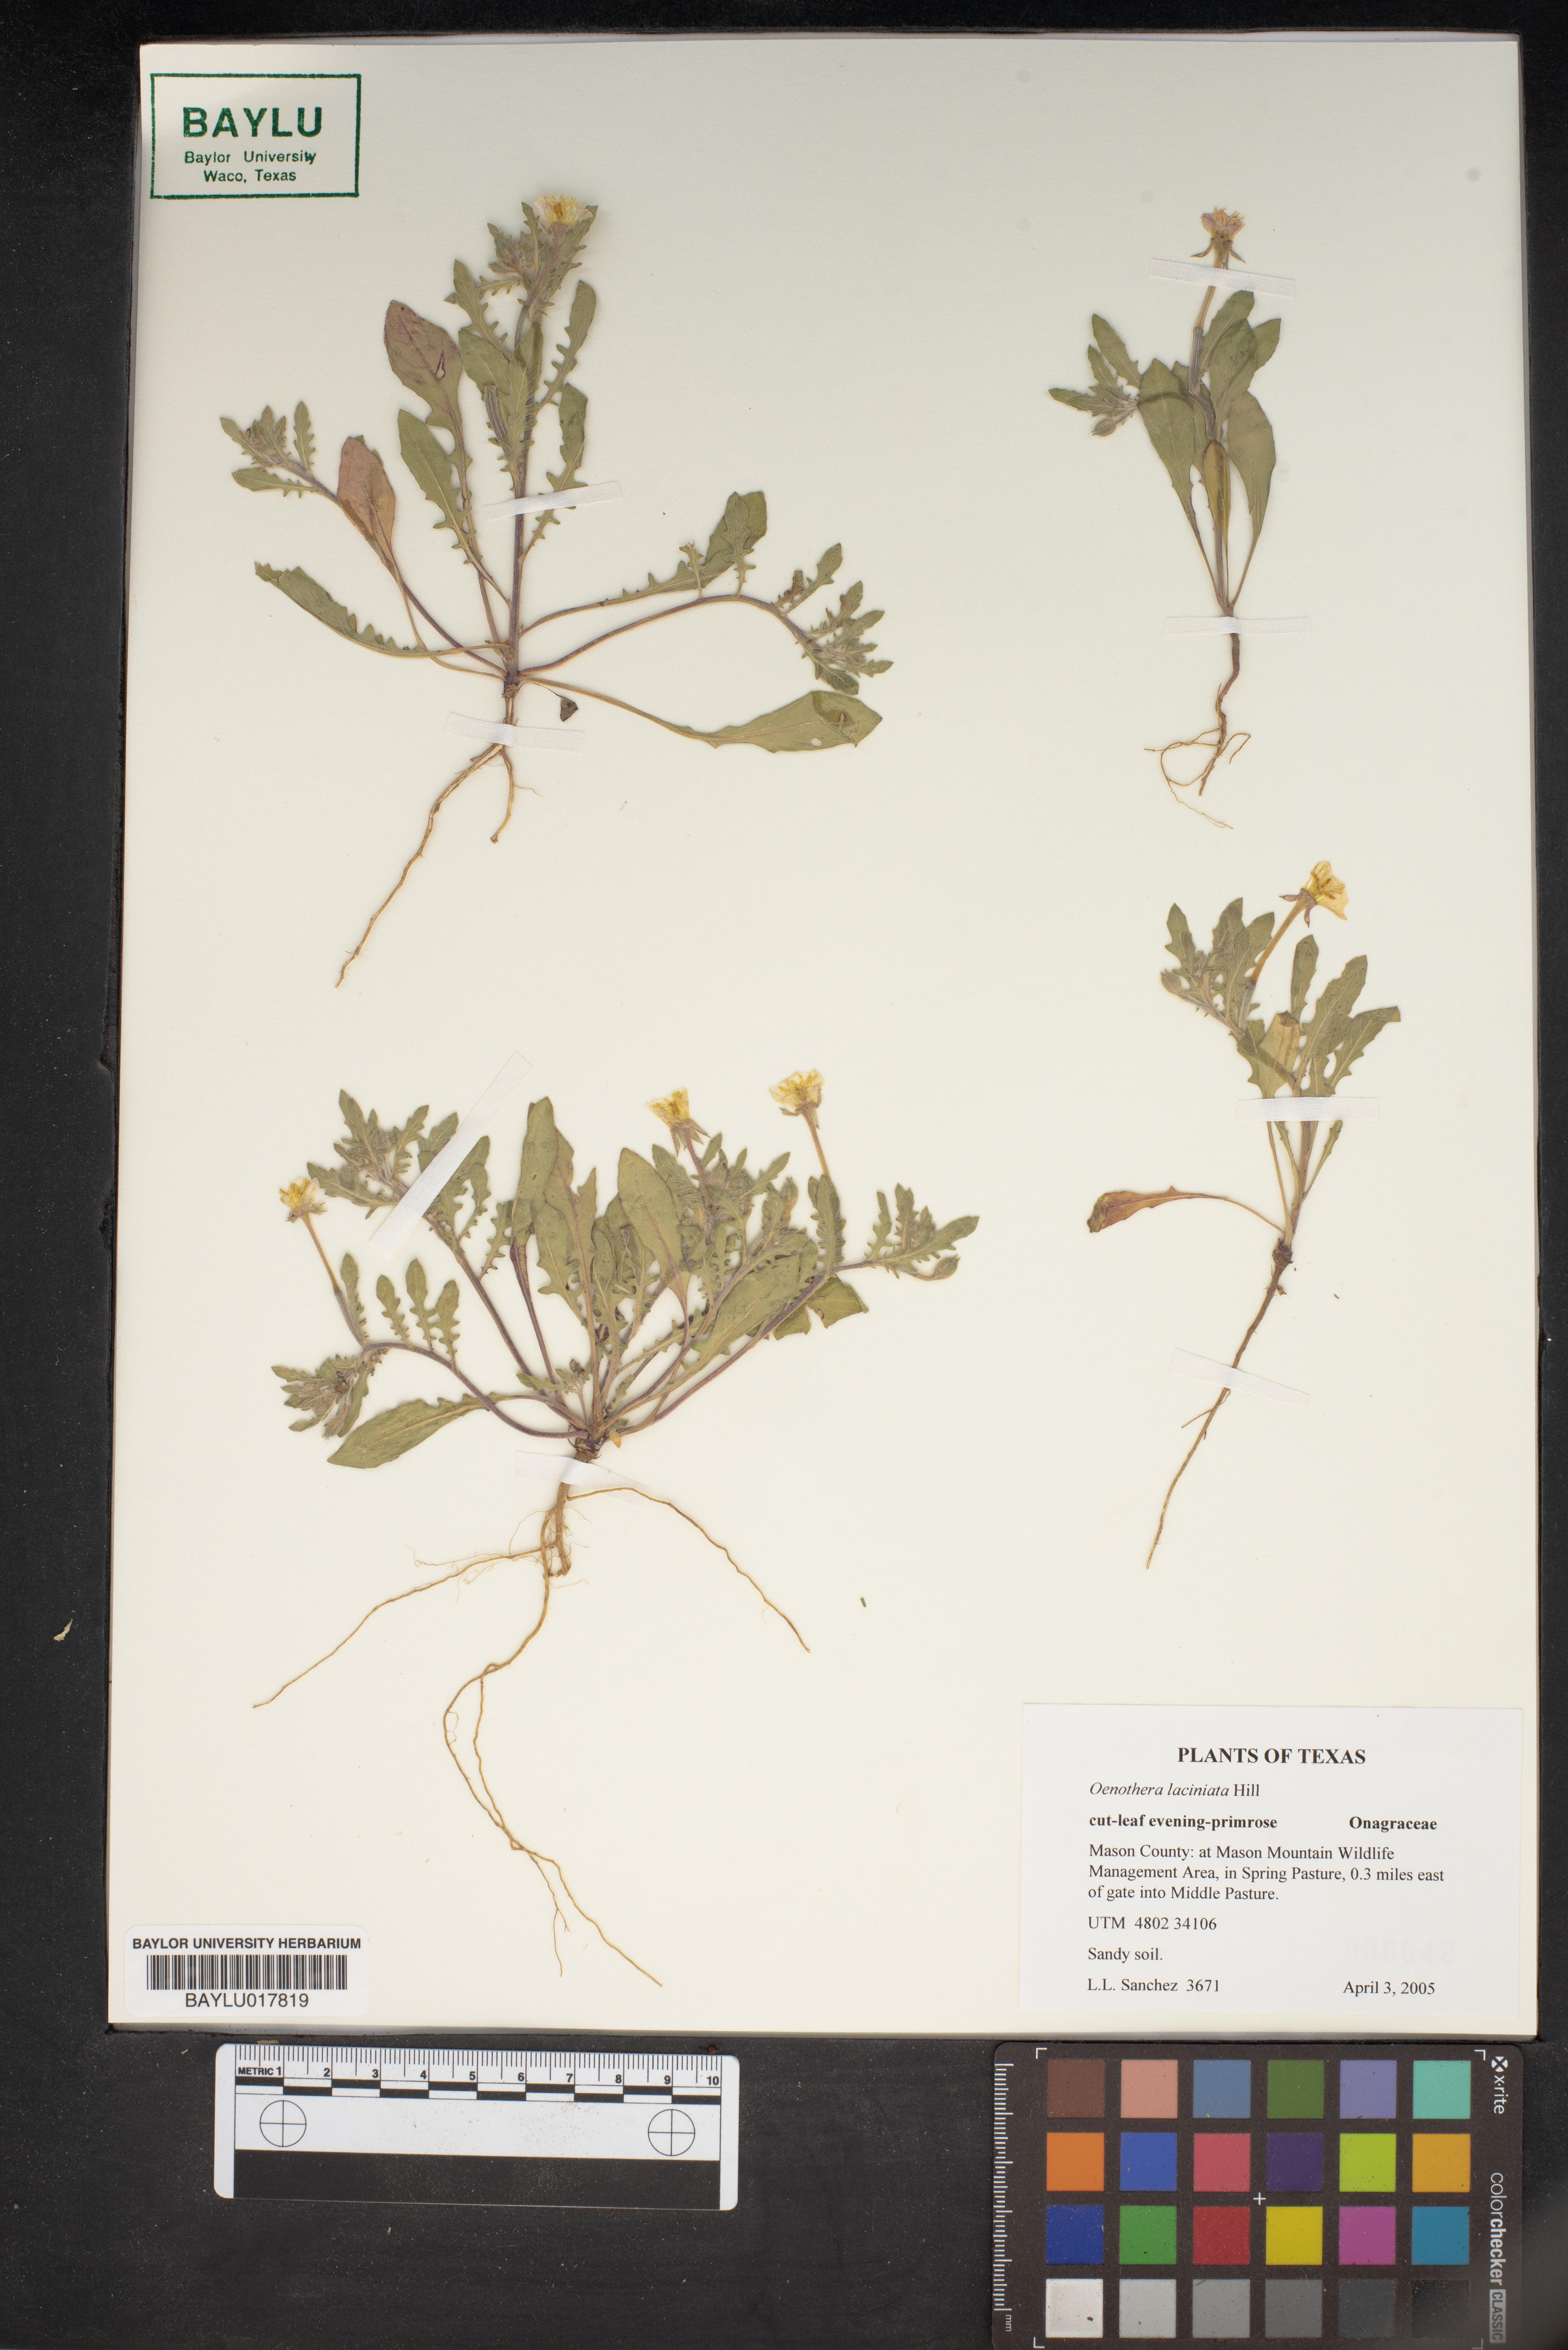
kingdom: Plantae
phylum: Tracheophyta
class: Magnoliopsida
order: Myrtales
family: Onagraceae
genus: Oenothera
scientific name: Oenothera laciniata
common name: Cut-leaved evening-primrose
